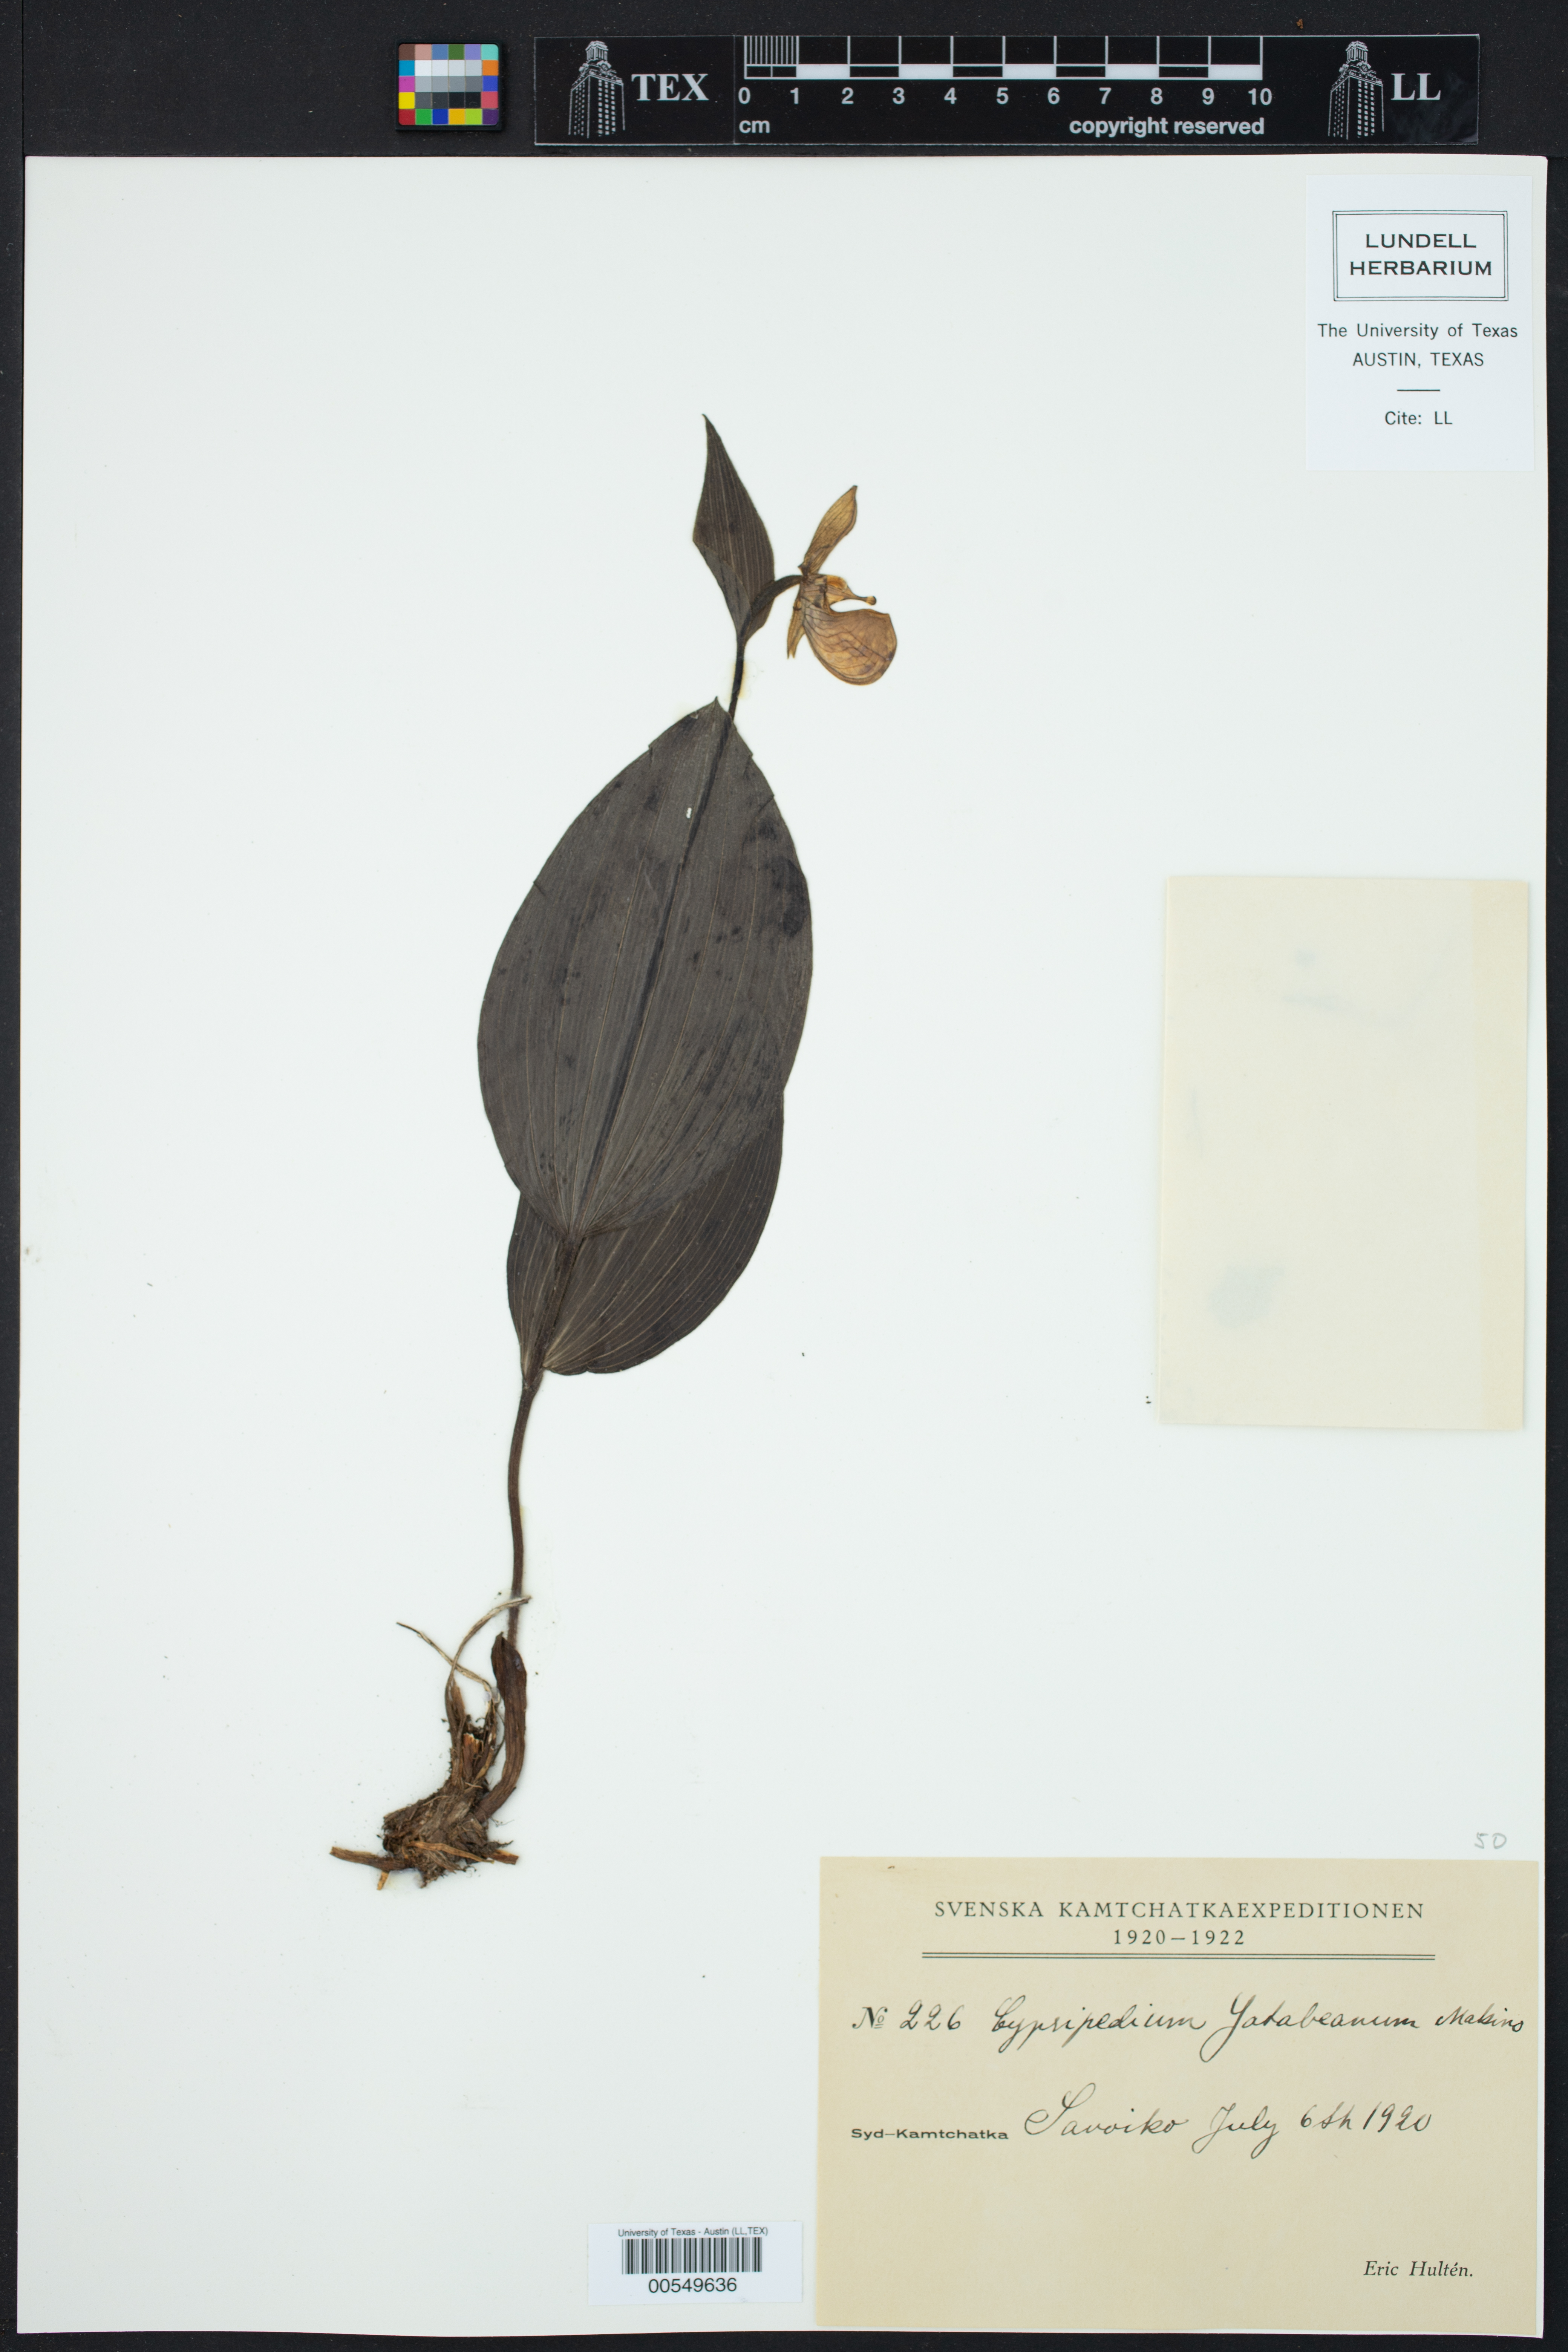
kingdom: Plantae
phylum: Tracheophyta
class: Liliopsida
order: Asparagales
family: Orchidaceae
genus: Cypripedium
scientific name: Cypripedium yatabeanum
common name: Spotted lady's slipper
